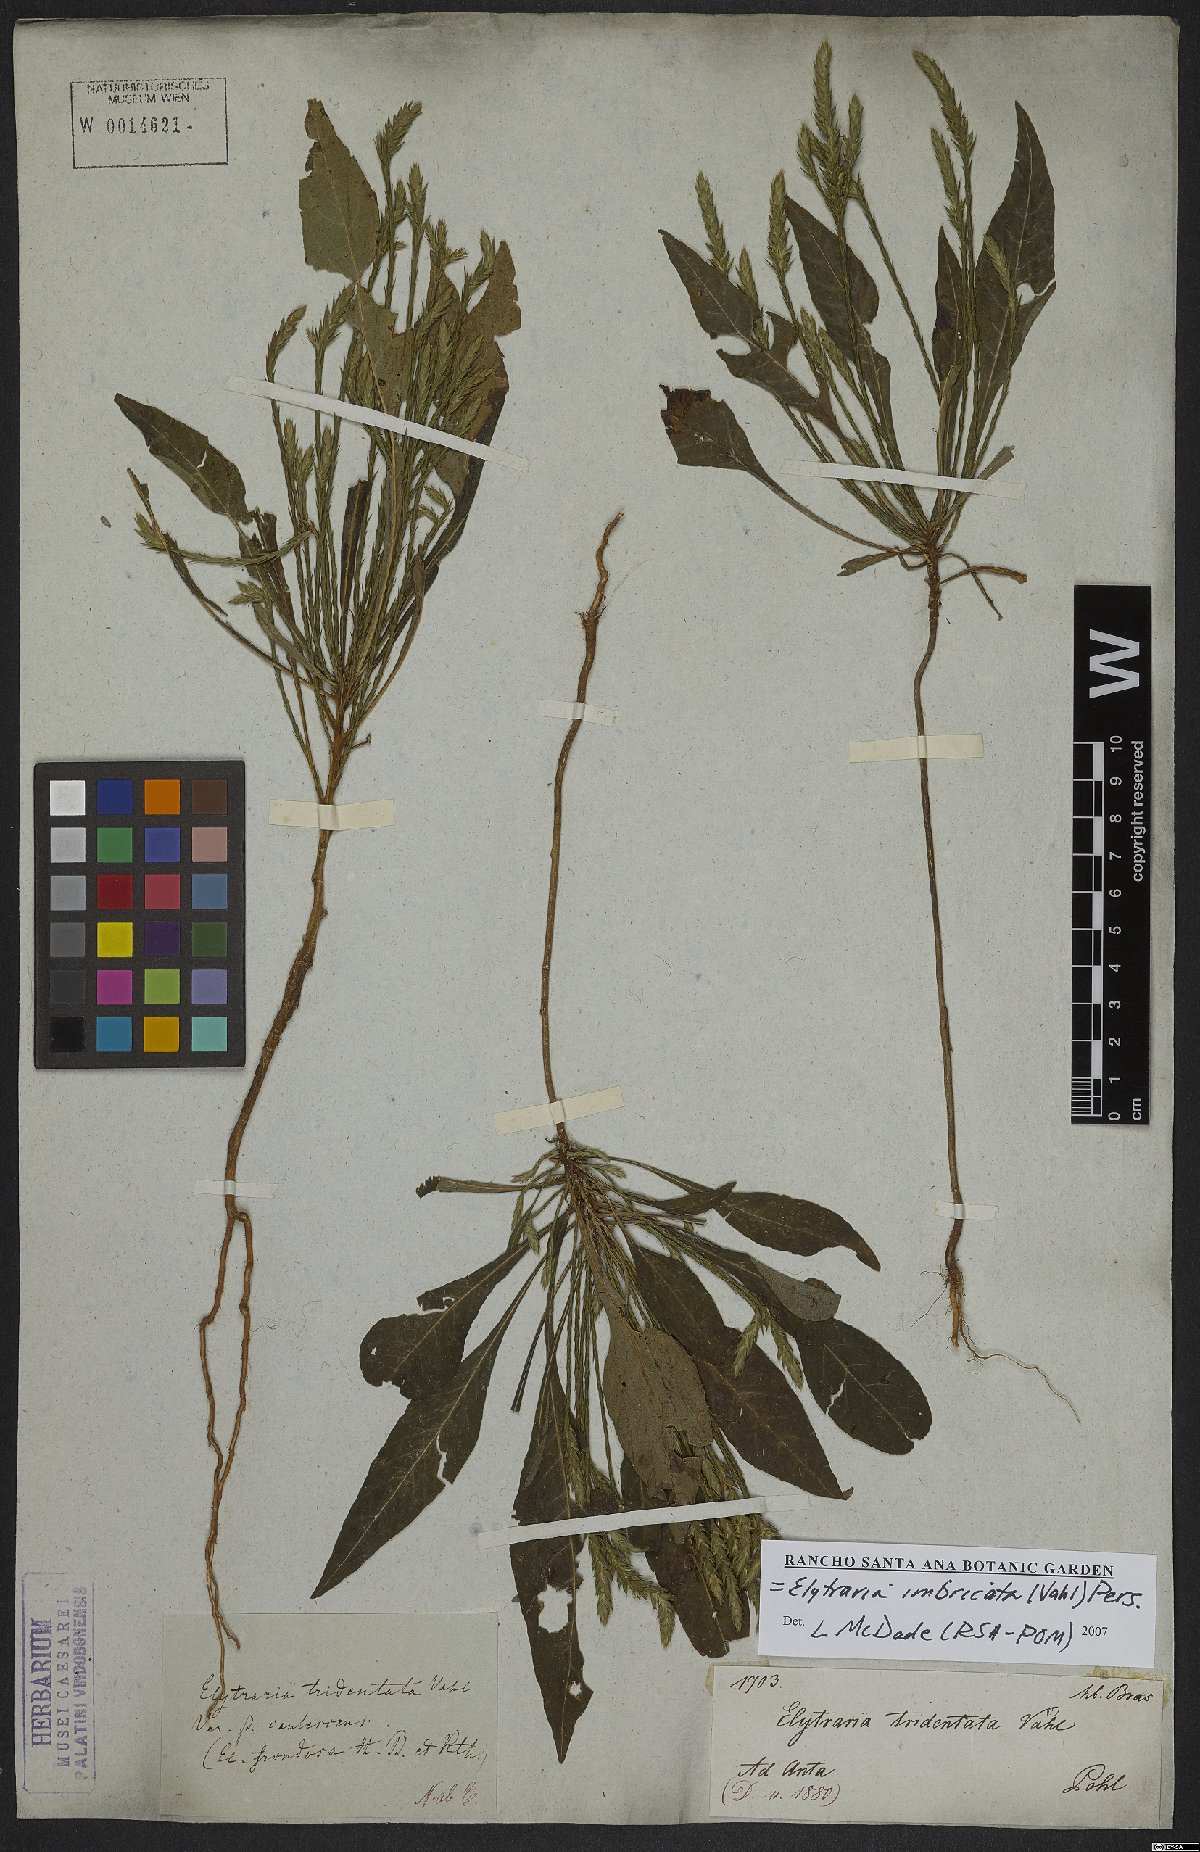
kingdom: Plantae
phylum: Tracheophyta
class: Magnoliopsida
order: Lamiales
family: Acanthaceae
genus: Elytraria
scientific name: Elytraria imbricata
